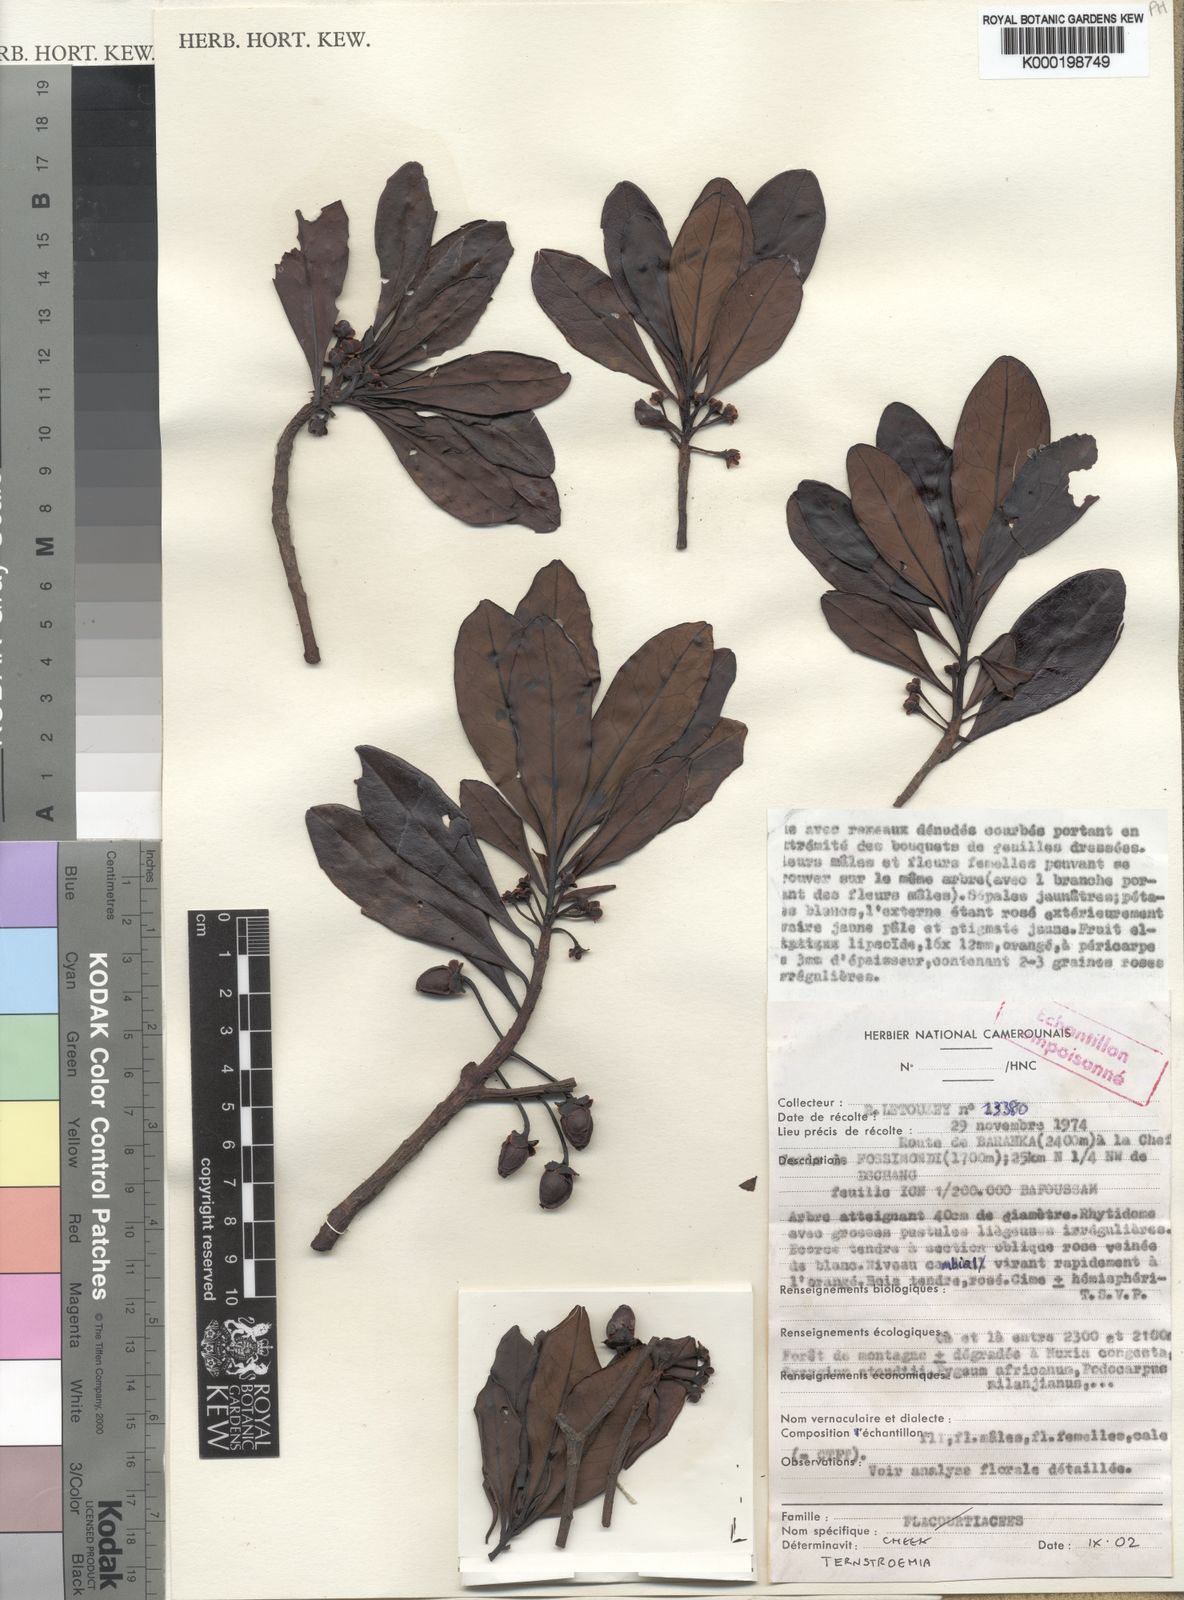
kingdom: Plantae
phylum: Tracheophyta
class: Magnoliopsida
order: Ericales
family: Pentaphylacaceae
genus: Ternstroemia
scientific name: Ternstroemia
